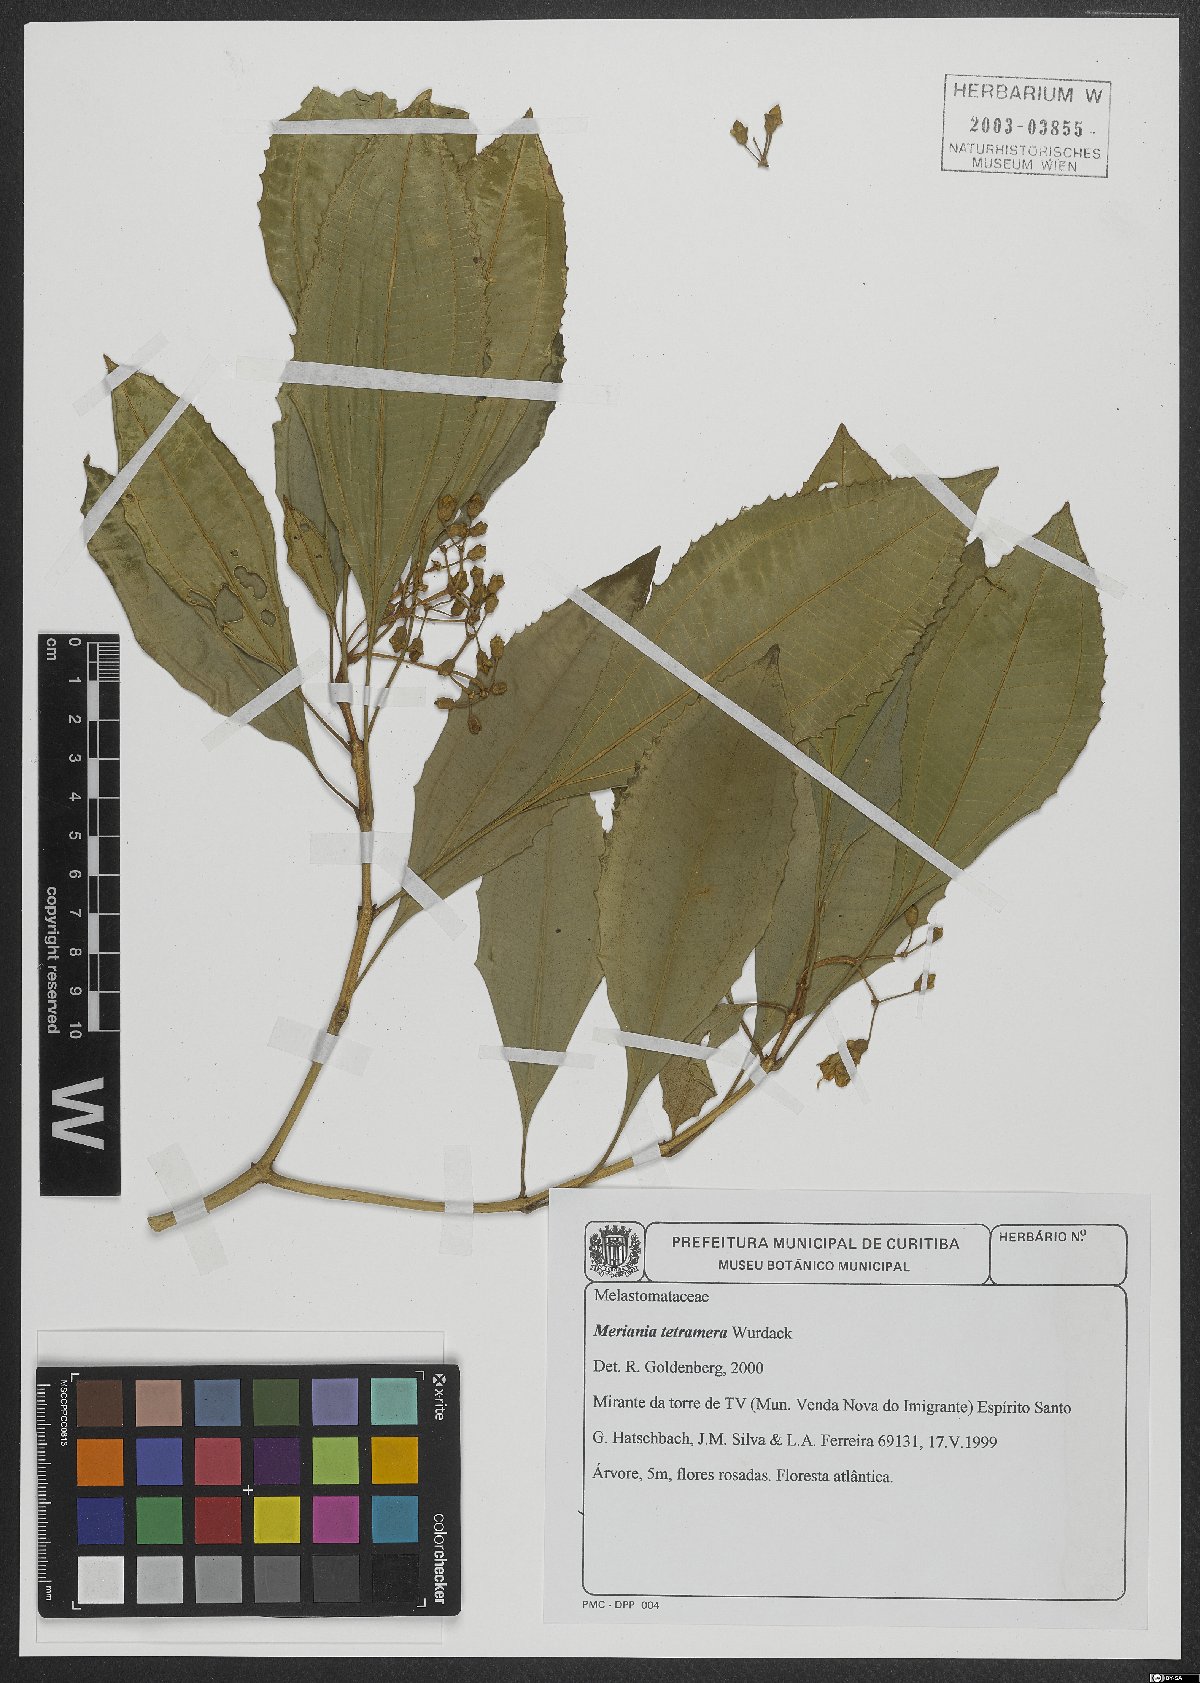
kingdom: Plantae
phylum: Tracheophyta
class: Magnoliopsida
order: Myrtales
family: Melastomataceae
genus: Meriania
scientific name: Meriania tetramera
